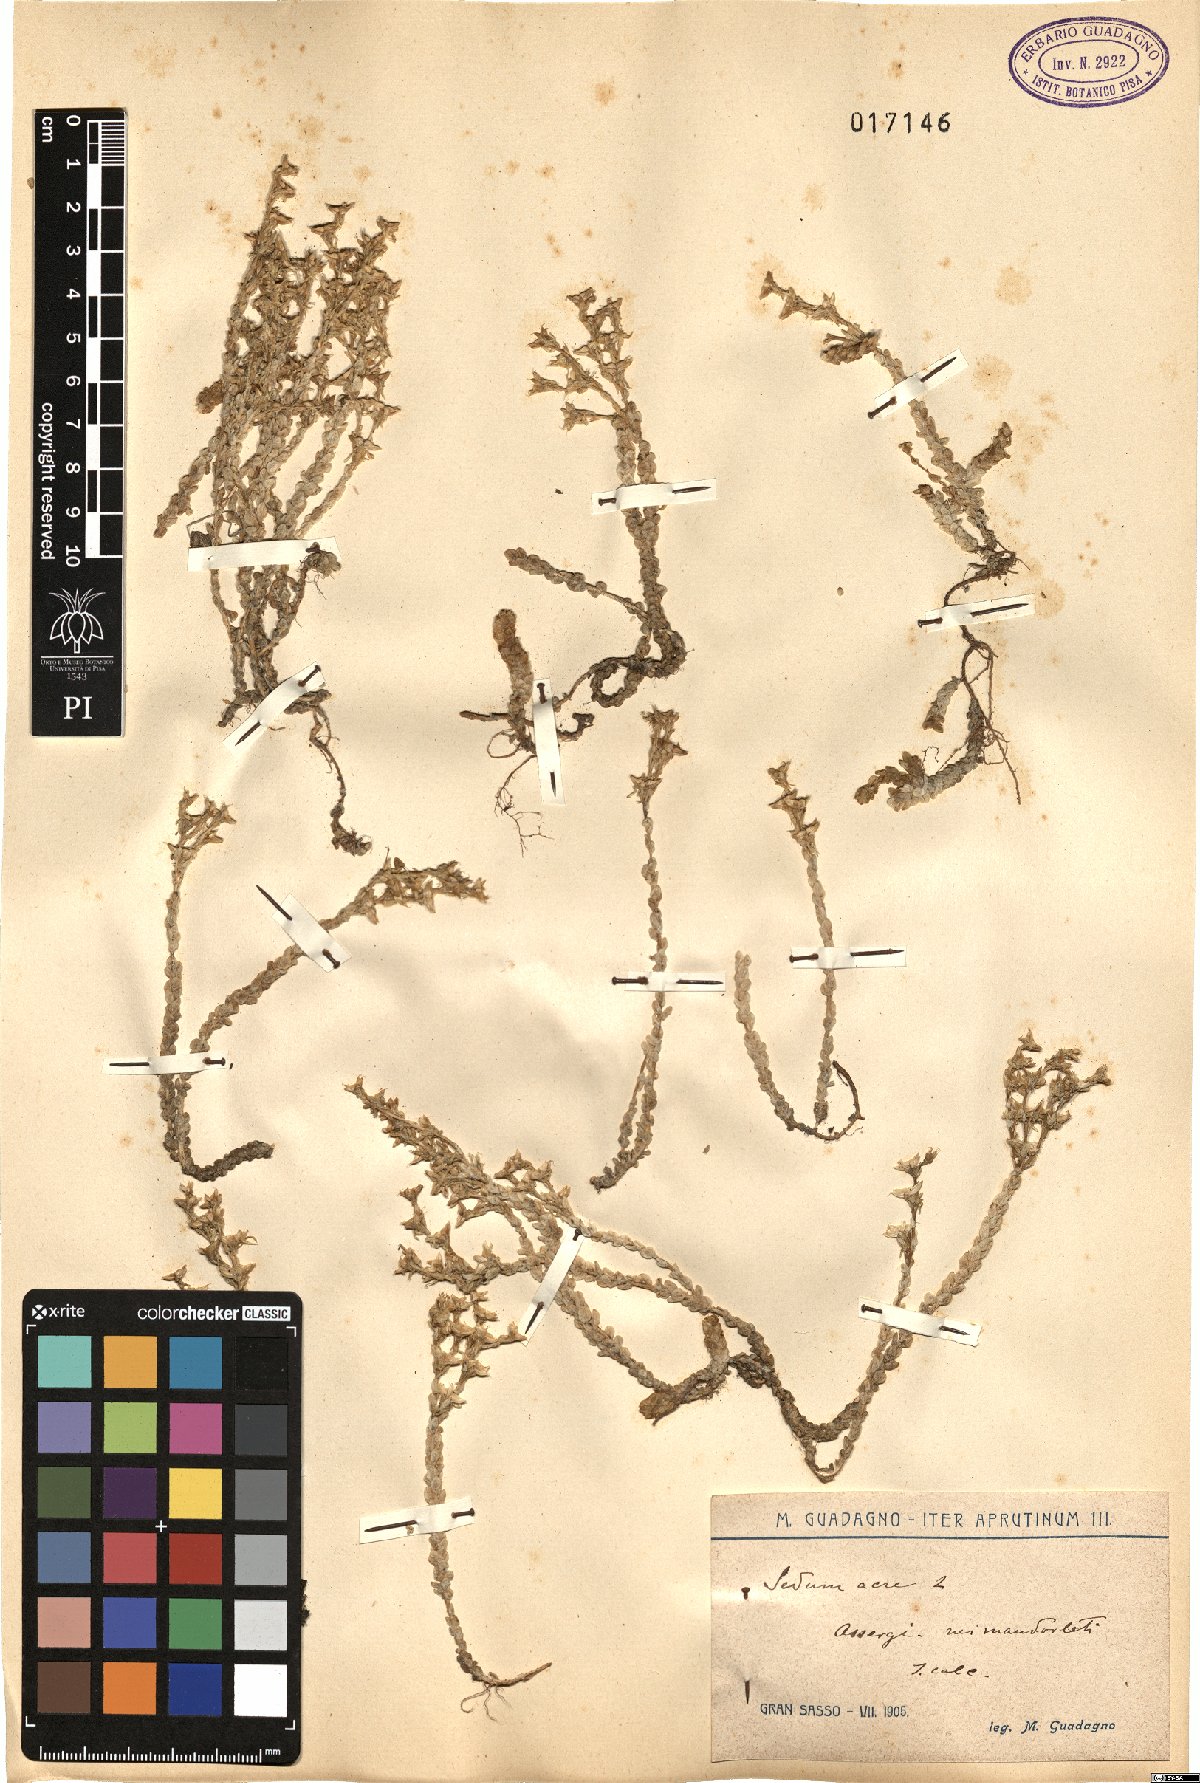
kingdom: Plantae
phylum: Tracheophyta
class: Magnoliopsida
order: Saxifragales
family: Crassulaceae
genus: Sedum
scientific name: Sedum acre
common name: Biting stonecrop
